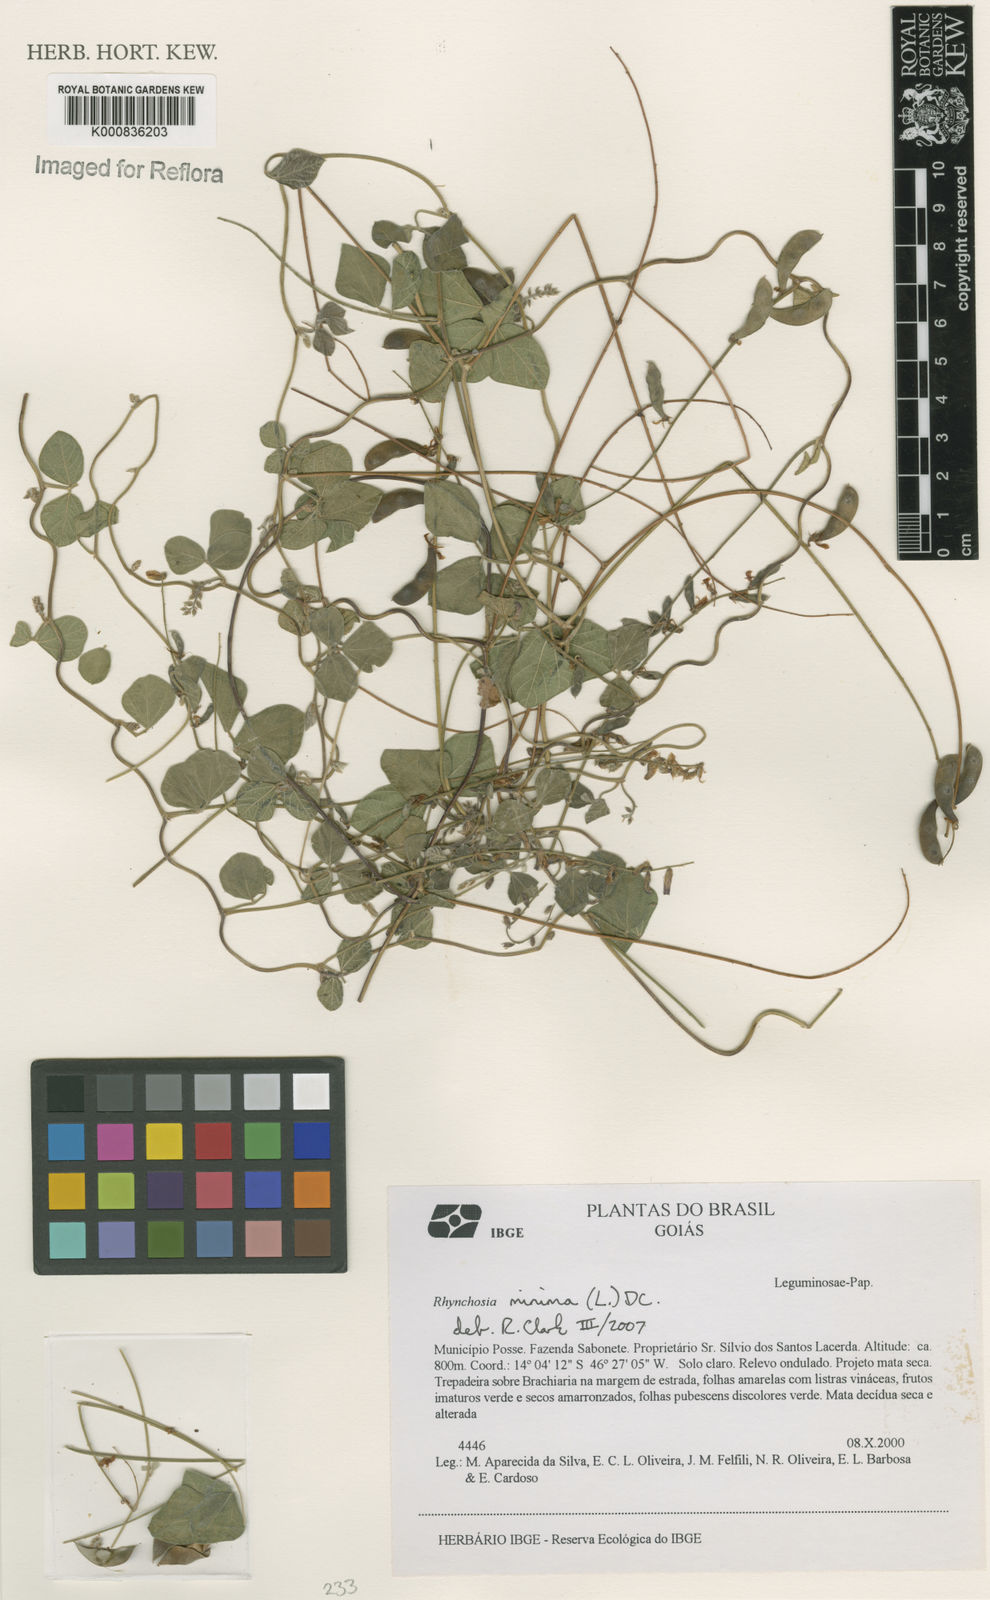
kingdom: Plantae
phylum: Tracheophyta
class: Magnoliopsida
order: Fabales
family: Fabaceae
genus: Rhynchosia
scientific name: Rhynchosia minima
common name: Least snoutbean
